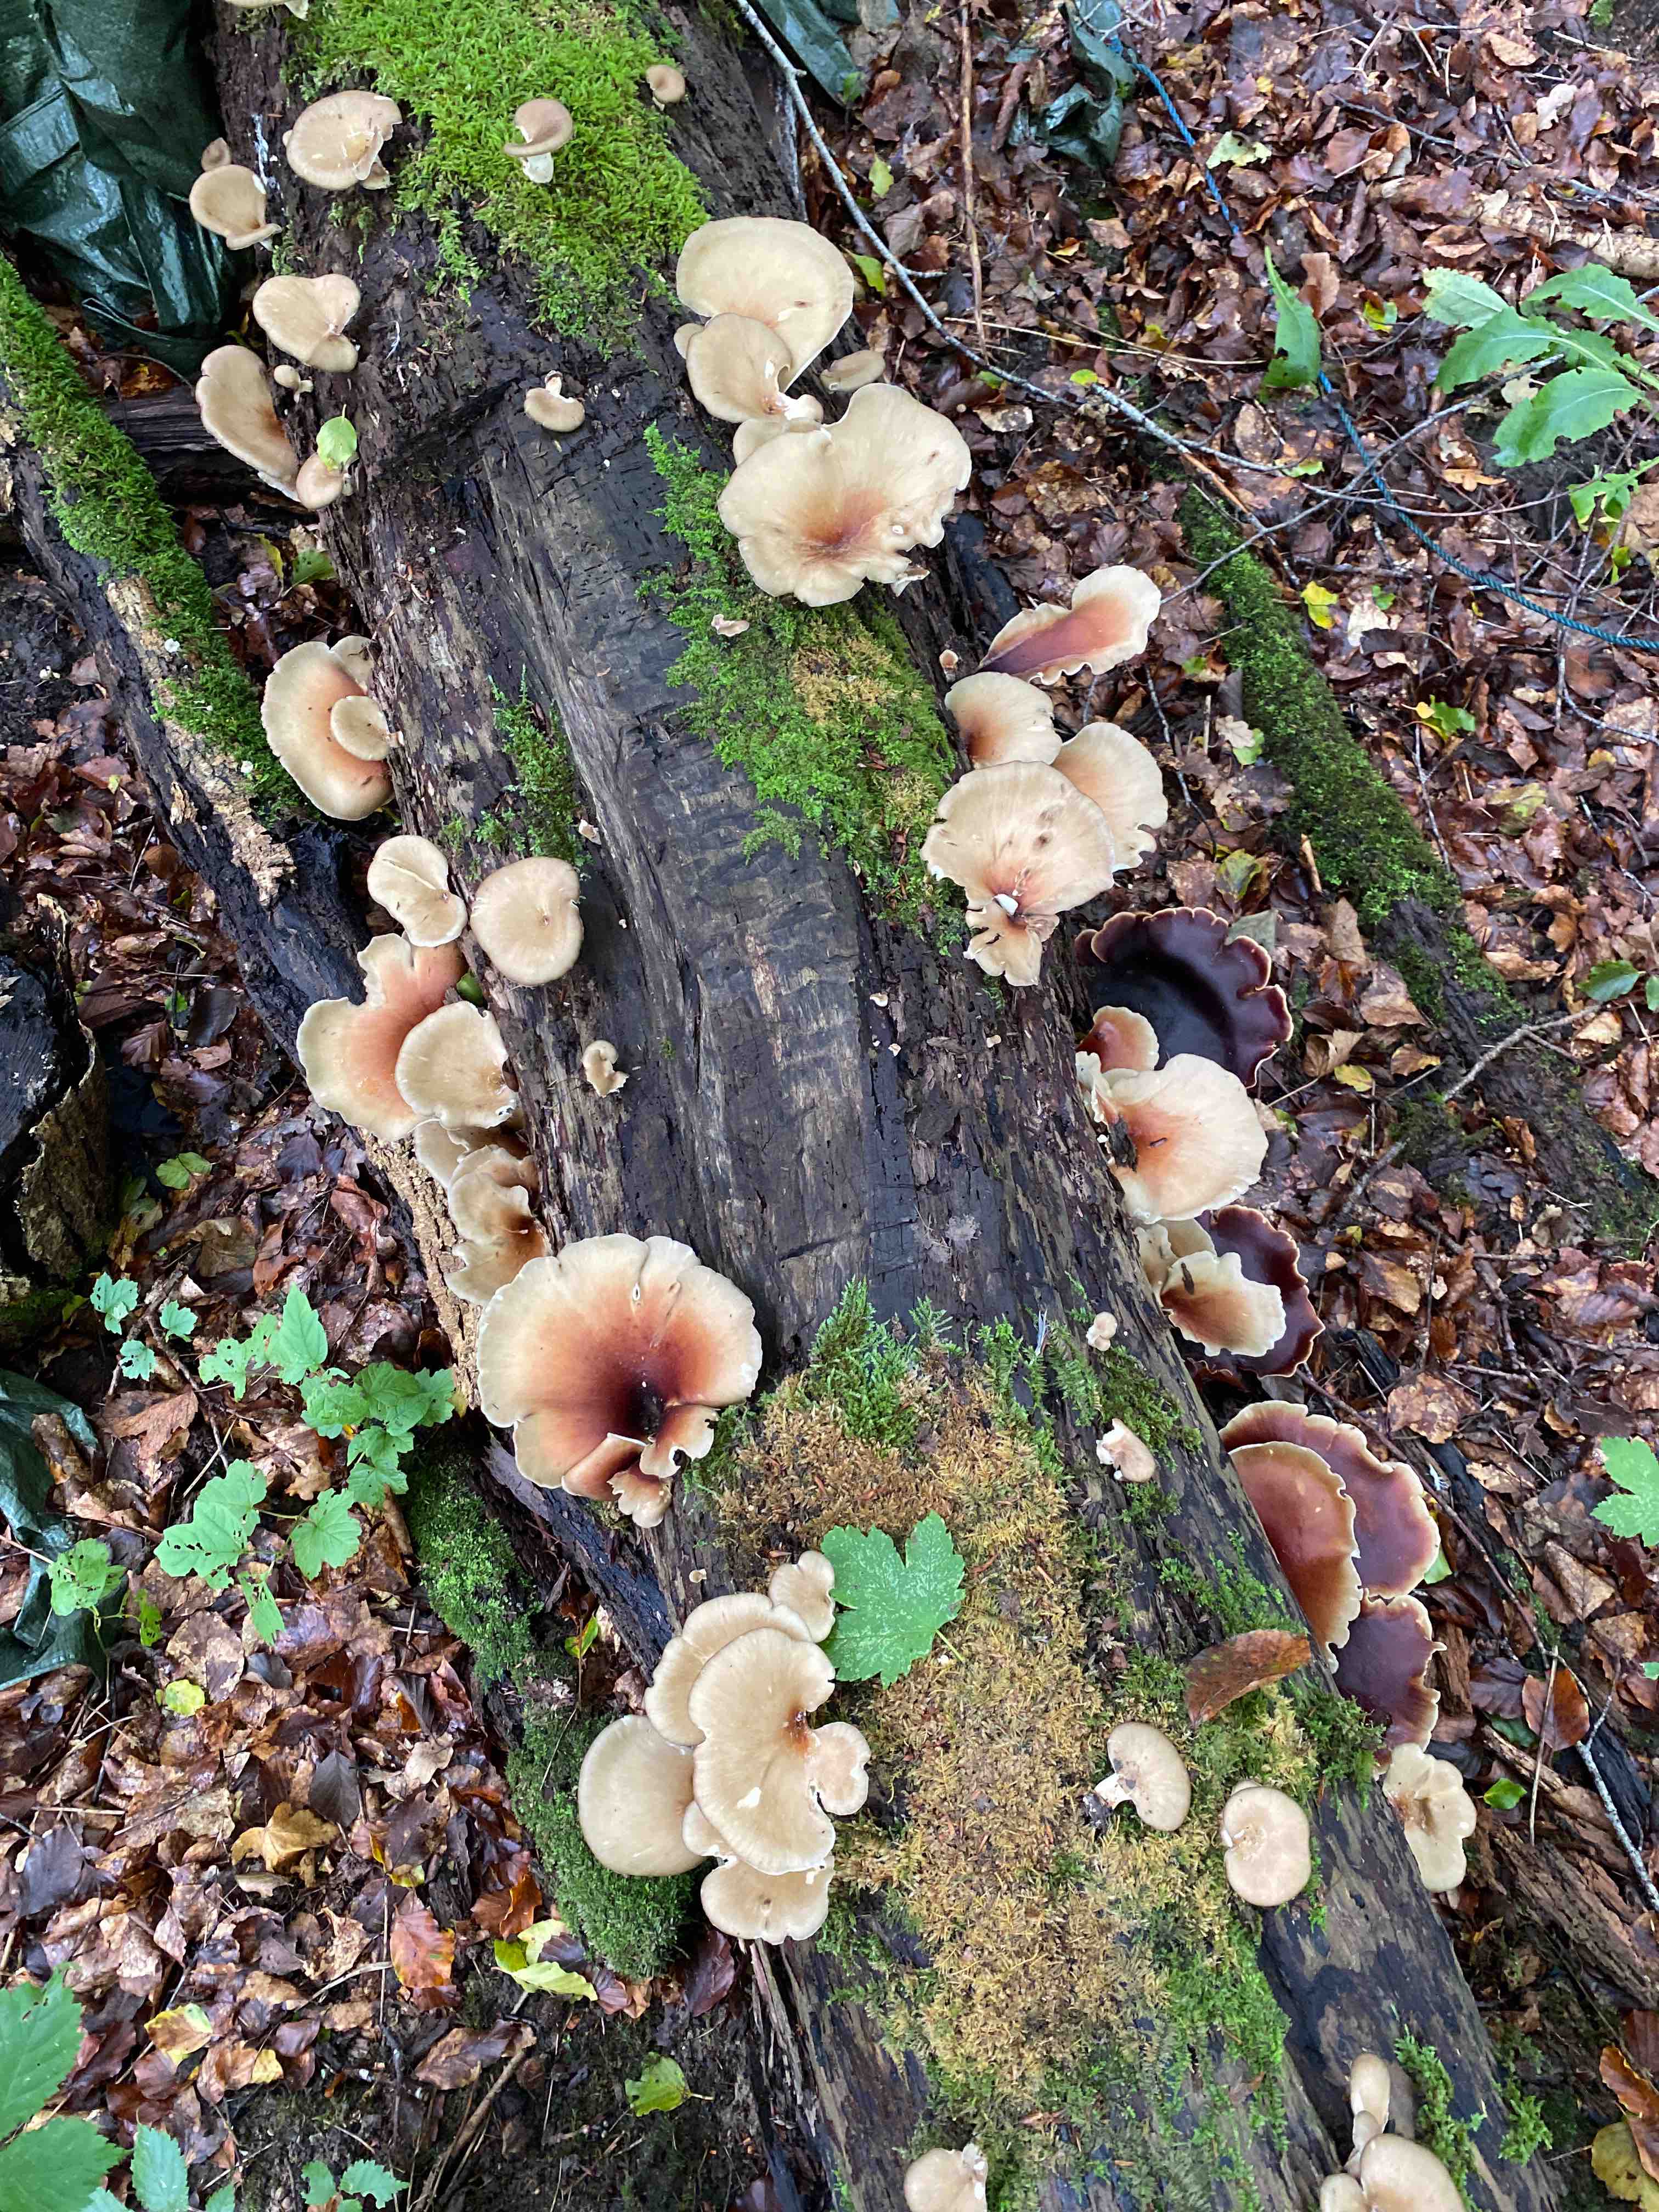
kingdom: Fungi
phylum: Basidiomycota
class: Agaricomycetes
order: Polyporales
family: Polyporaceae
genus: Picipes
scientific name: Picipes badius
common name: kastaniebrun stilkporesvamp
